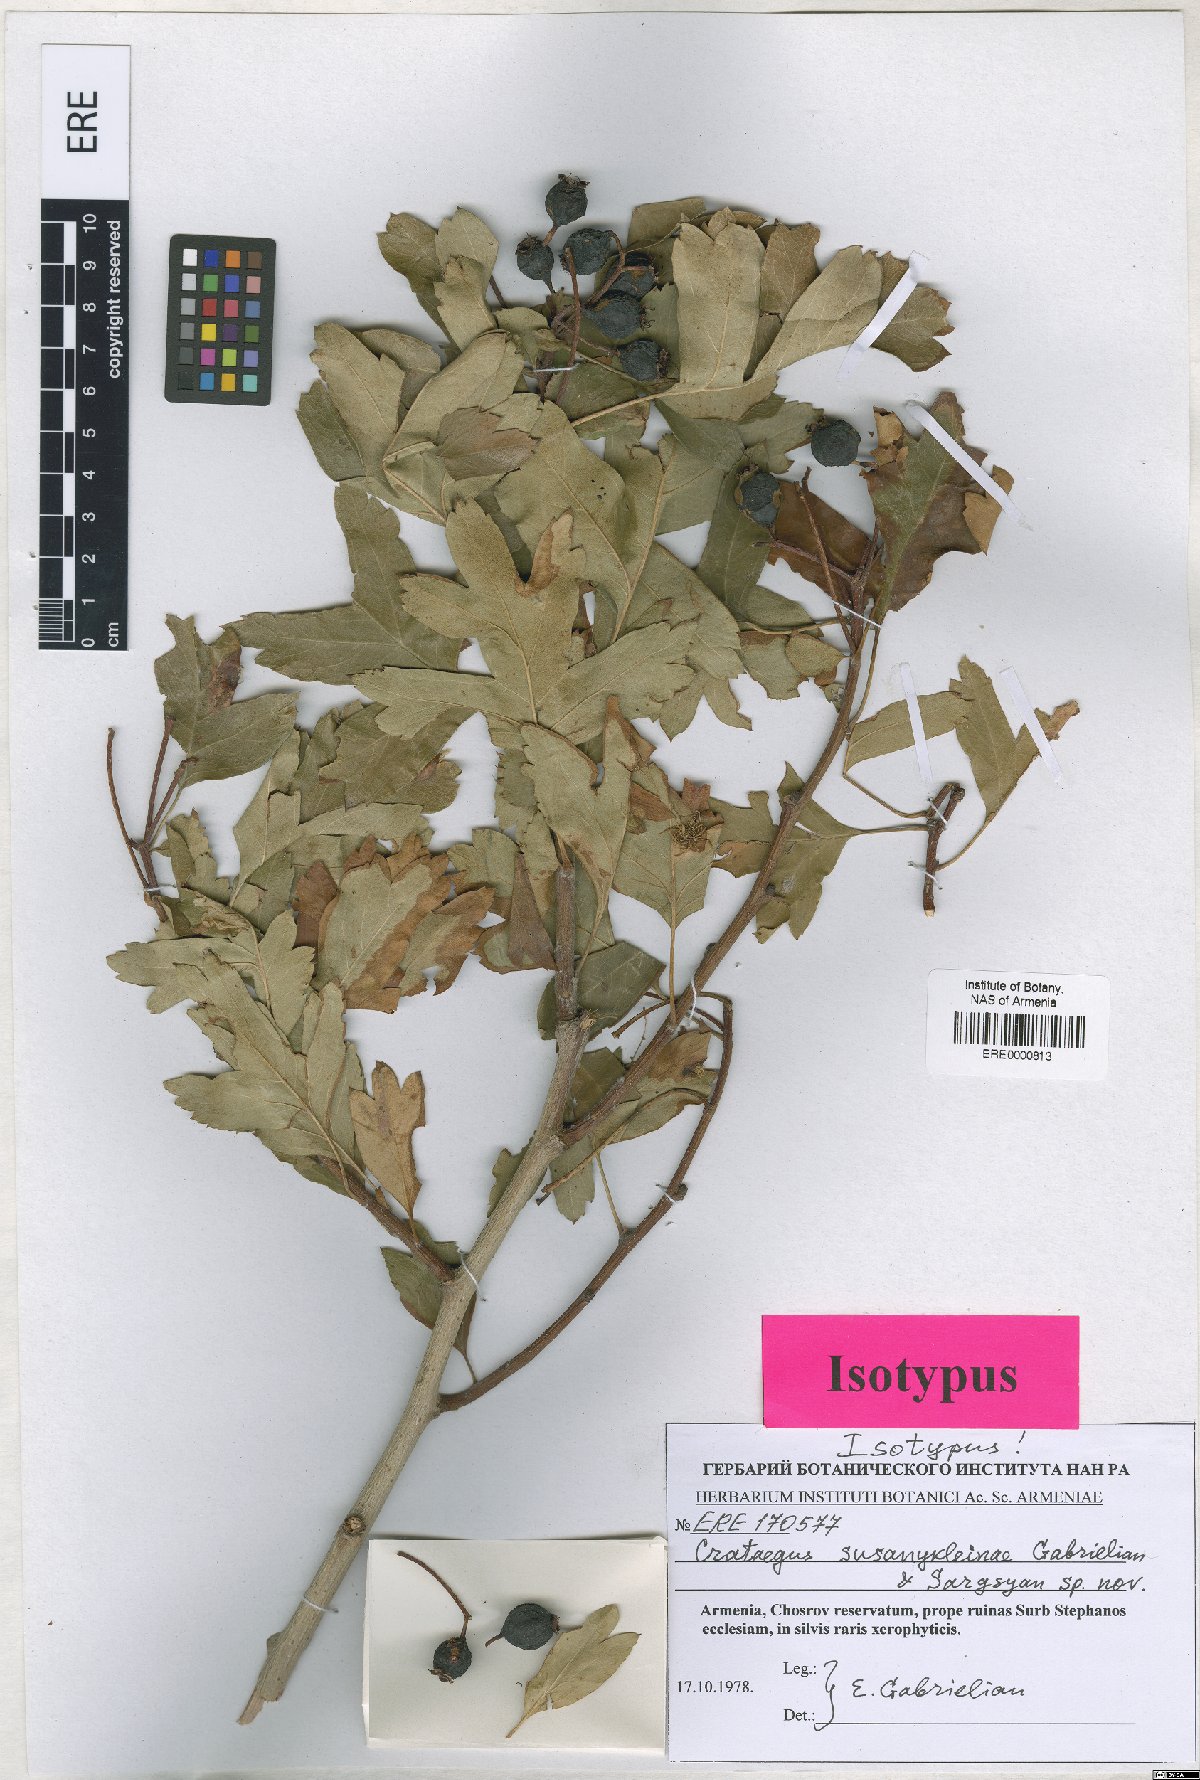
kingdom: Plantae
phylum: Tracheophyta
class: Magnoliopsida
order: Rosales
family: Rosaceae
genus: Crataegus
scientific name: Crataegus
